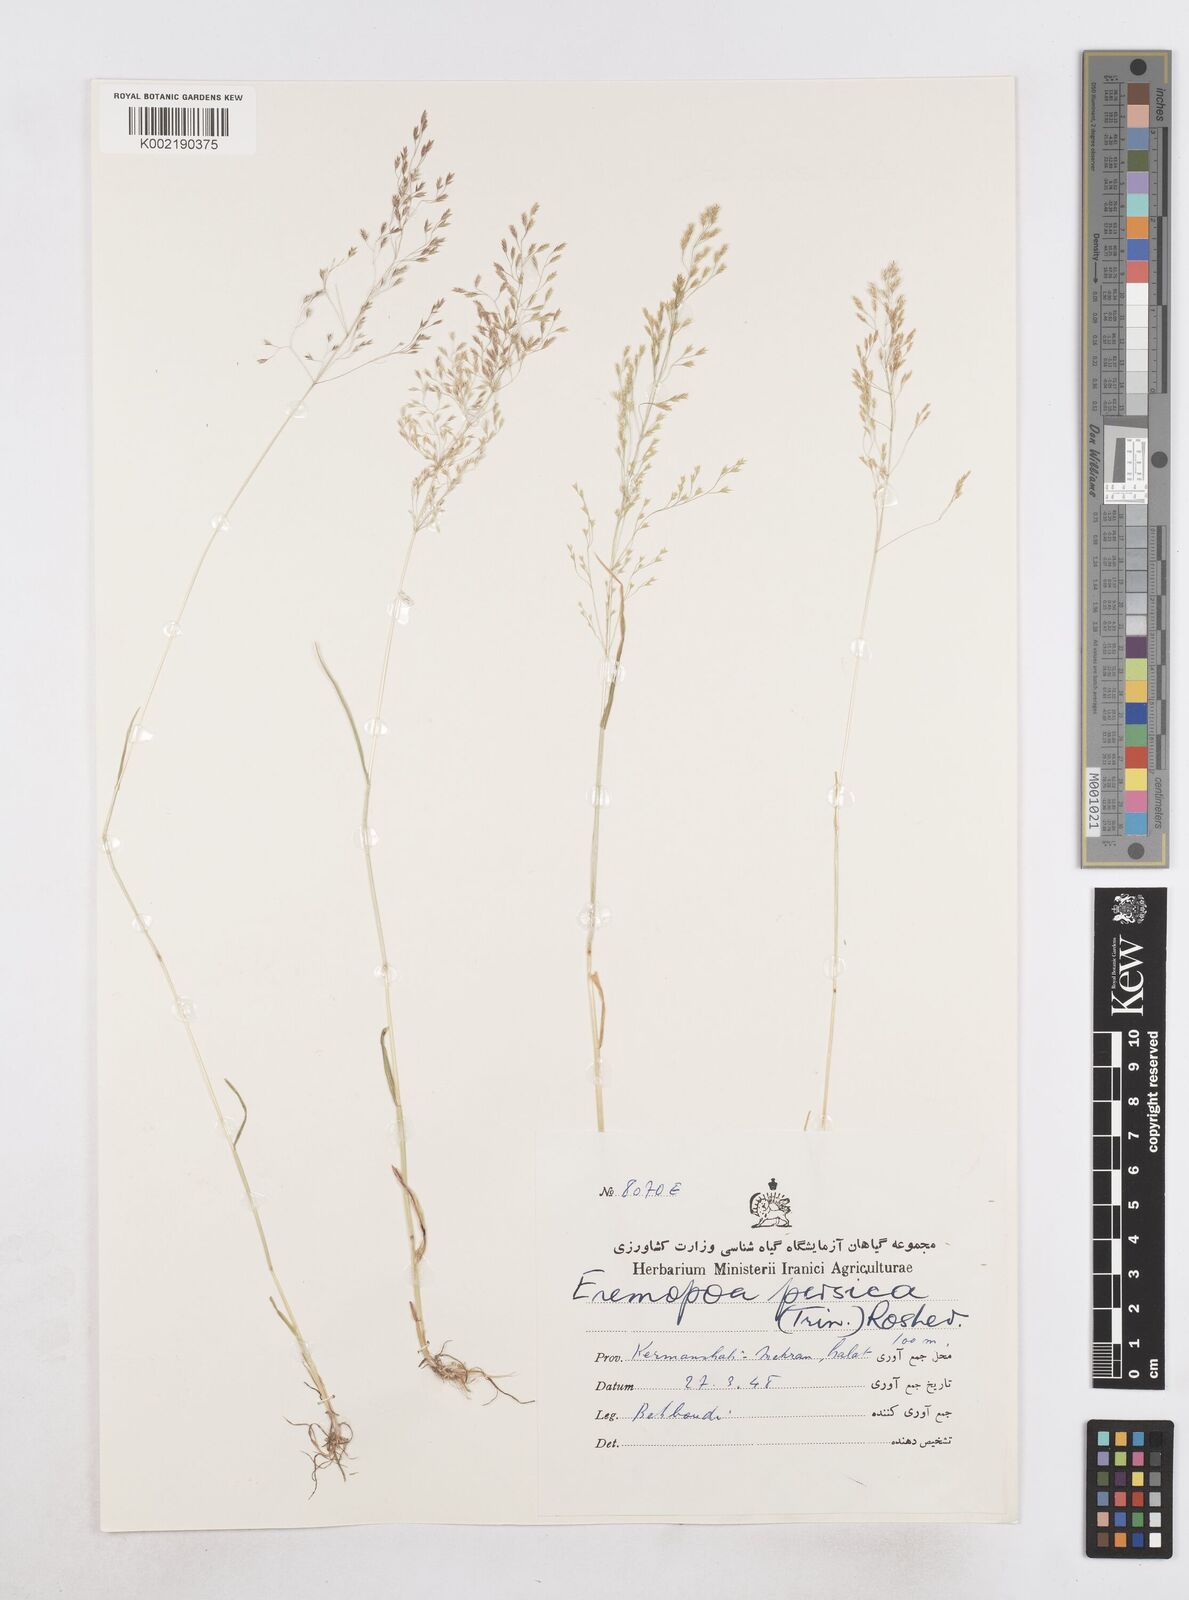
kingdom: Plantae
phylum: Tracheophyta
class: Liliopsida
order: Poales
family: Poaceae
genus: Poa
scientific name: Poa persica
